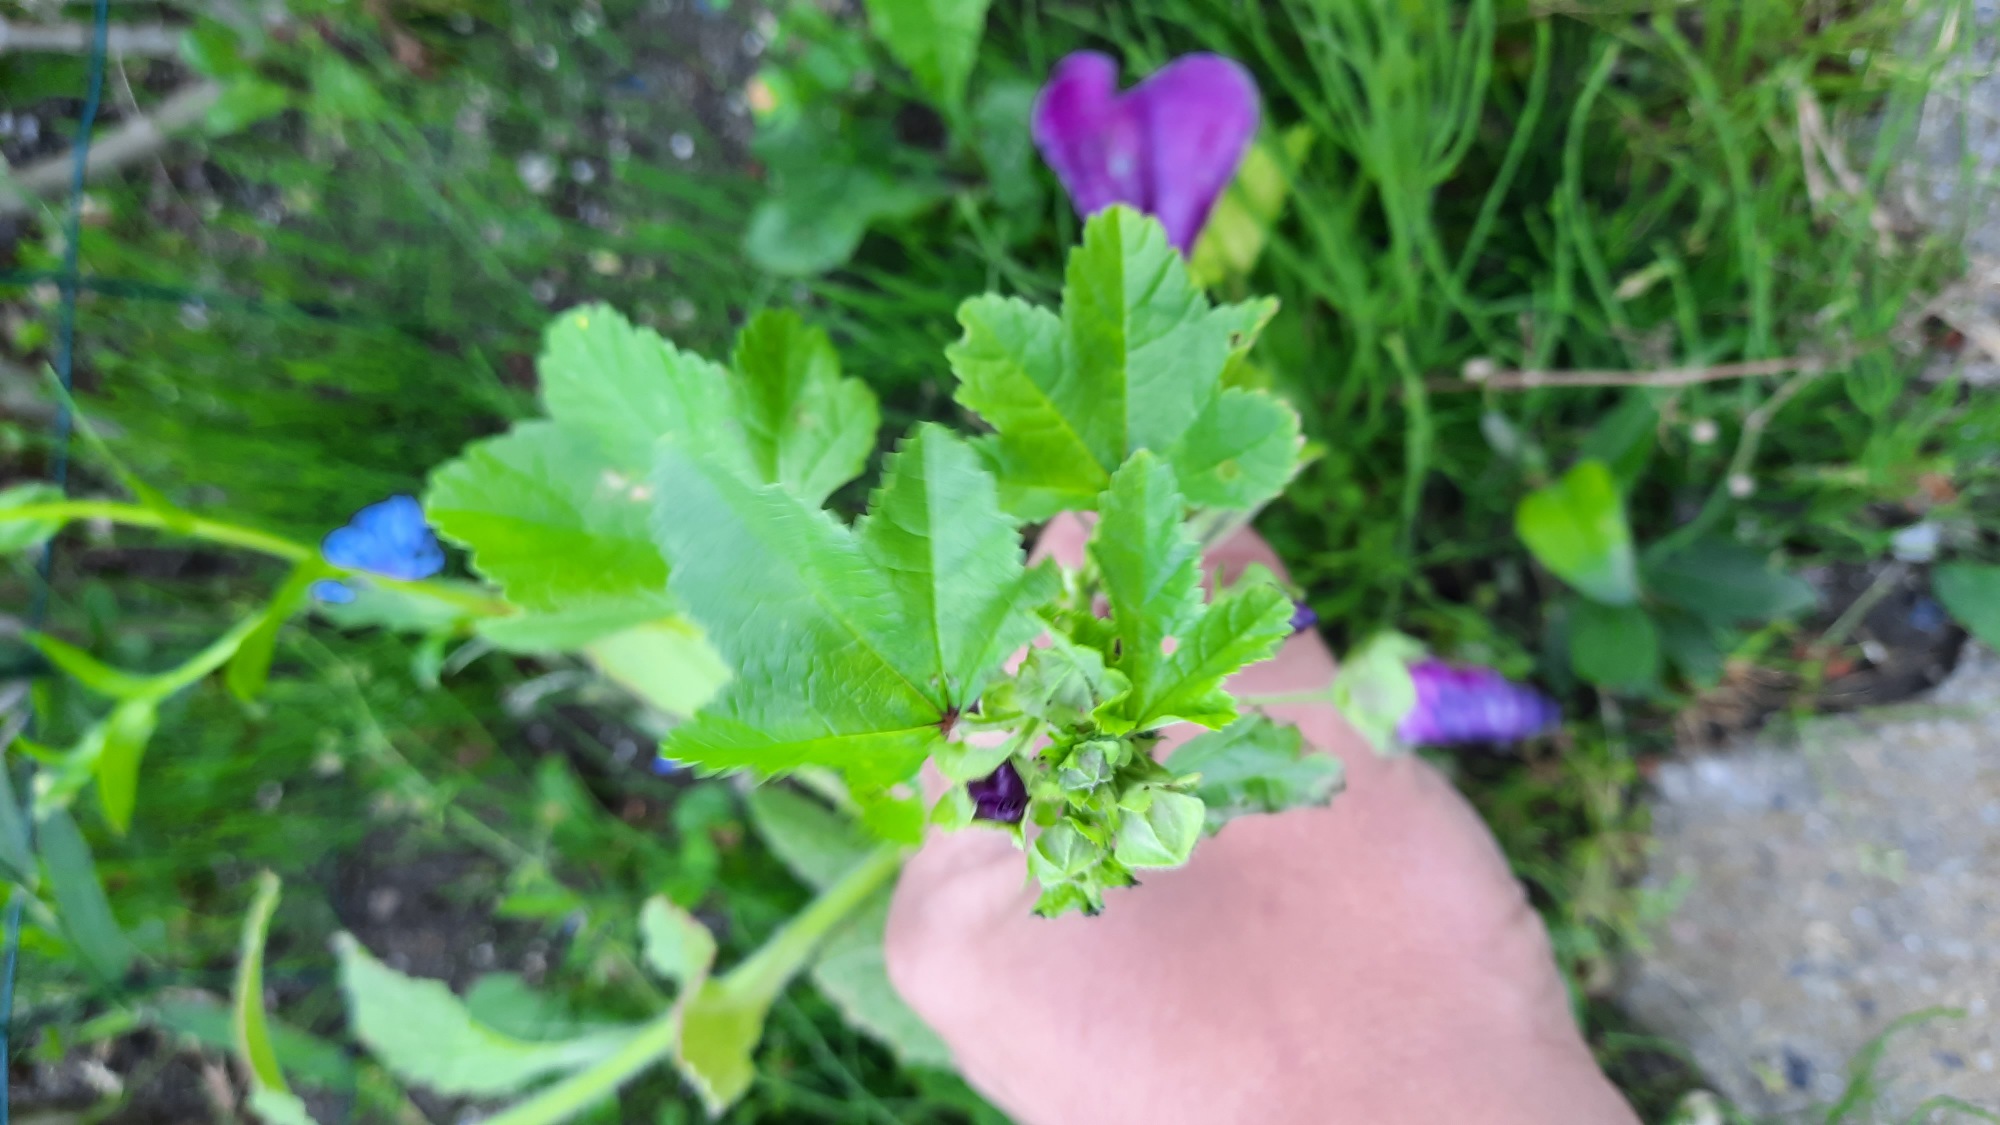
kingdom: Plantae
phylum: Tracheophyta
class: Magnoliopsida
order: Malvales
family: Malvaceae
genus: Malva
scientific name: Malva sylvestris
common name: Stor katost
